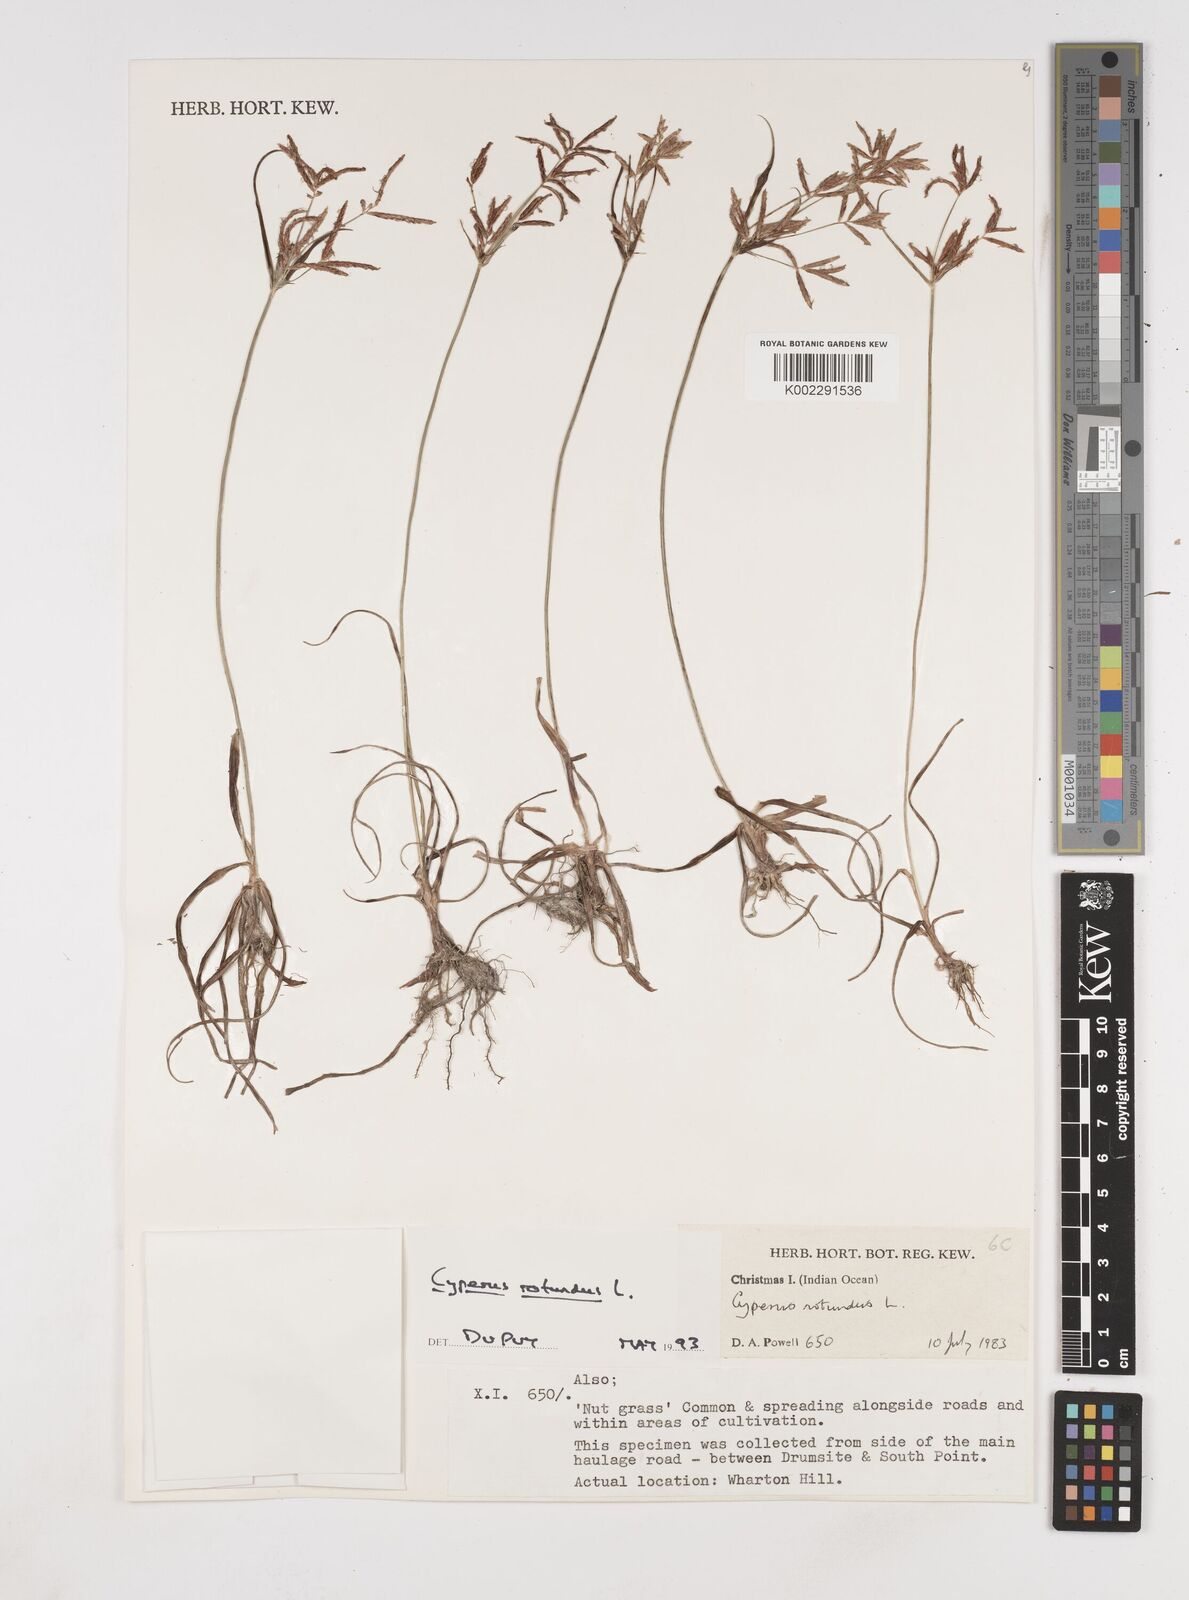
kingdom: Plantae
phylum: Tracheophyta
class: Liliopsida
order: Poales
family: Cyperaceae
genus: Cyperus
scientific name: Cyperus rotundus
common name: Nutgrass
